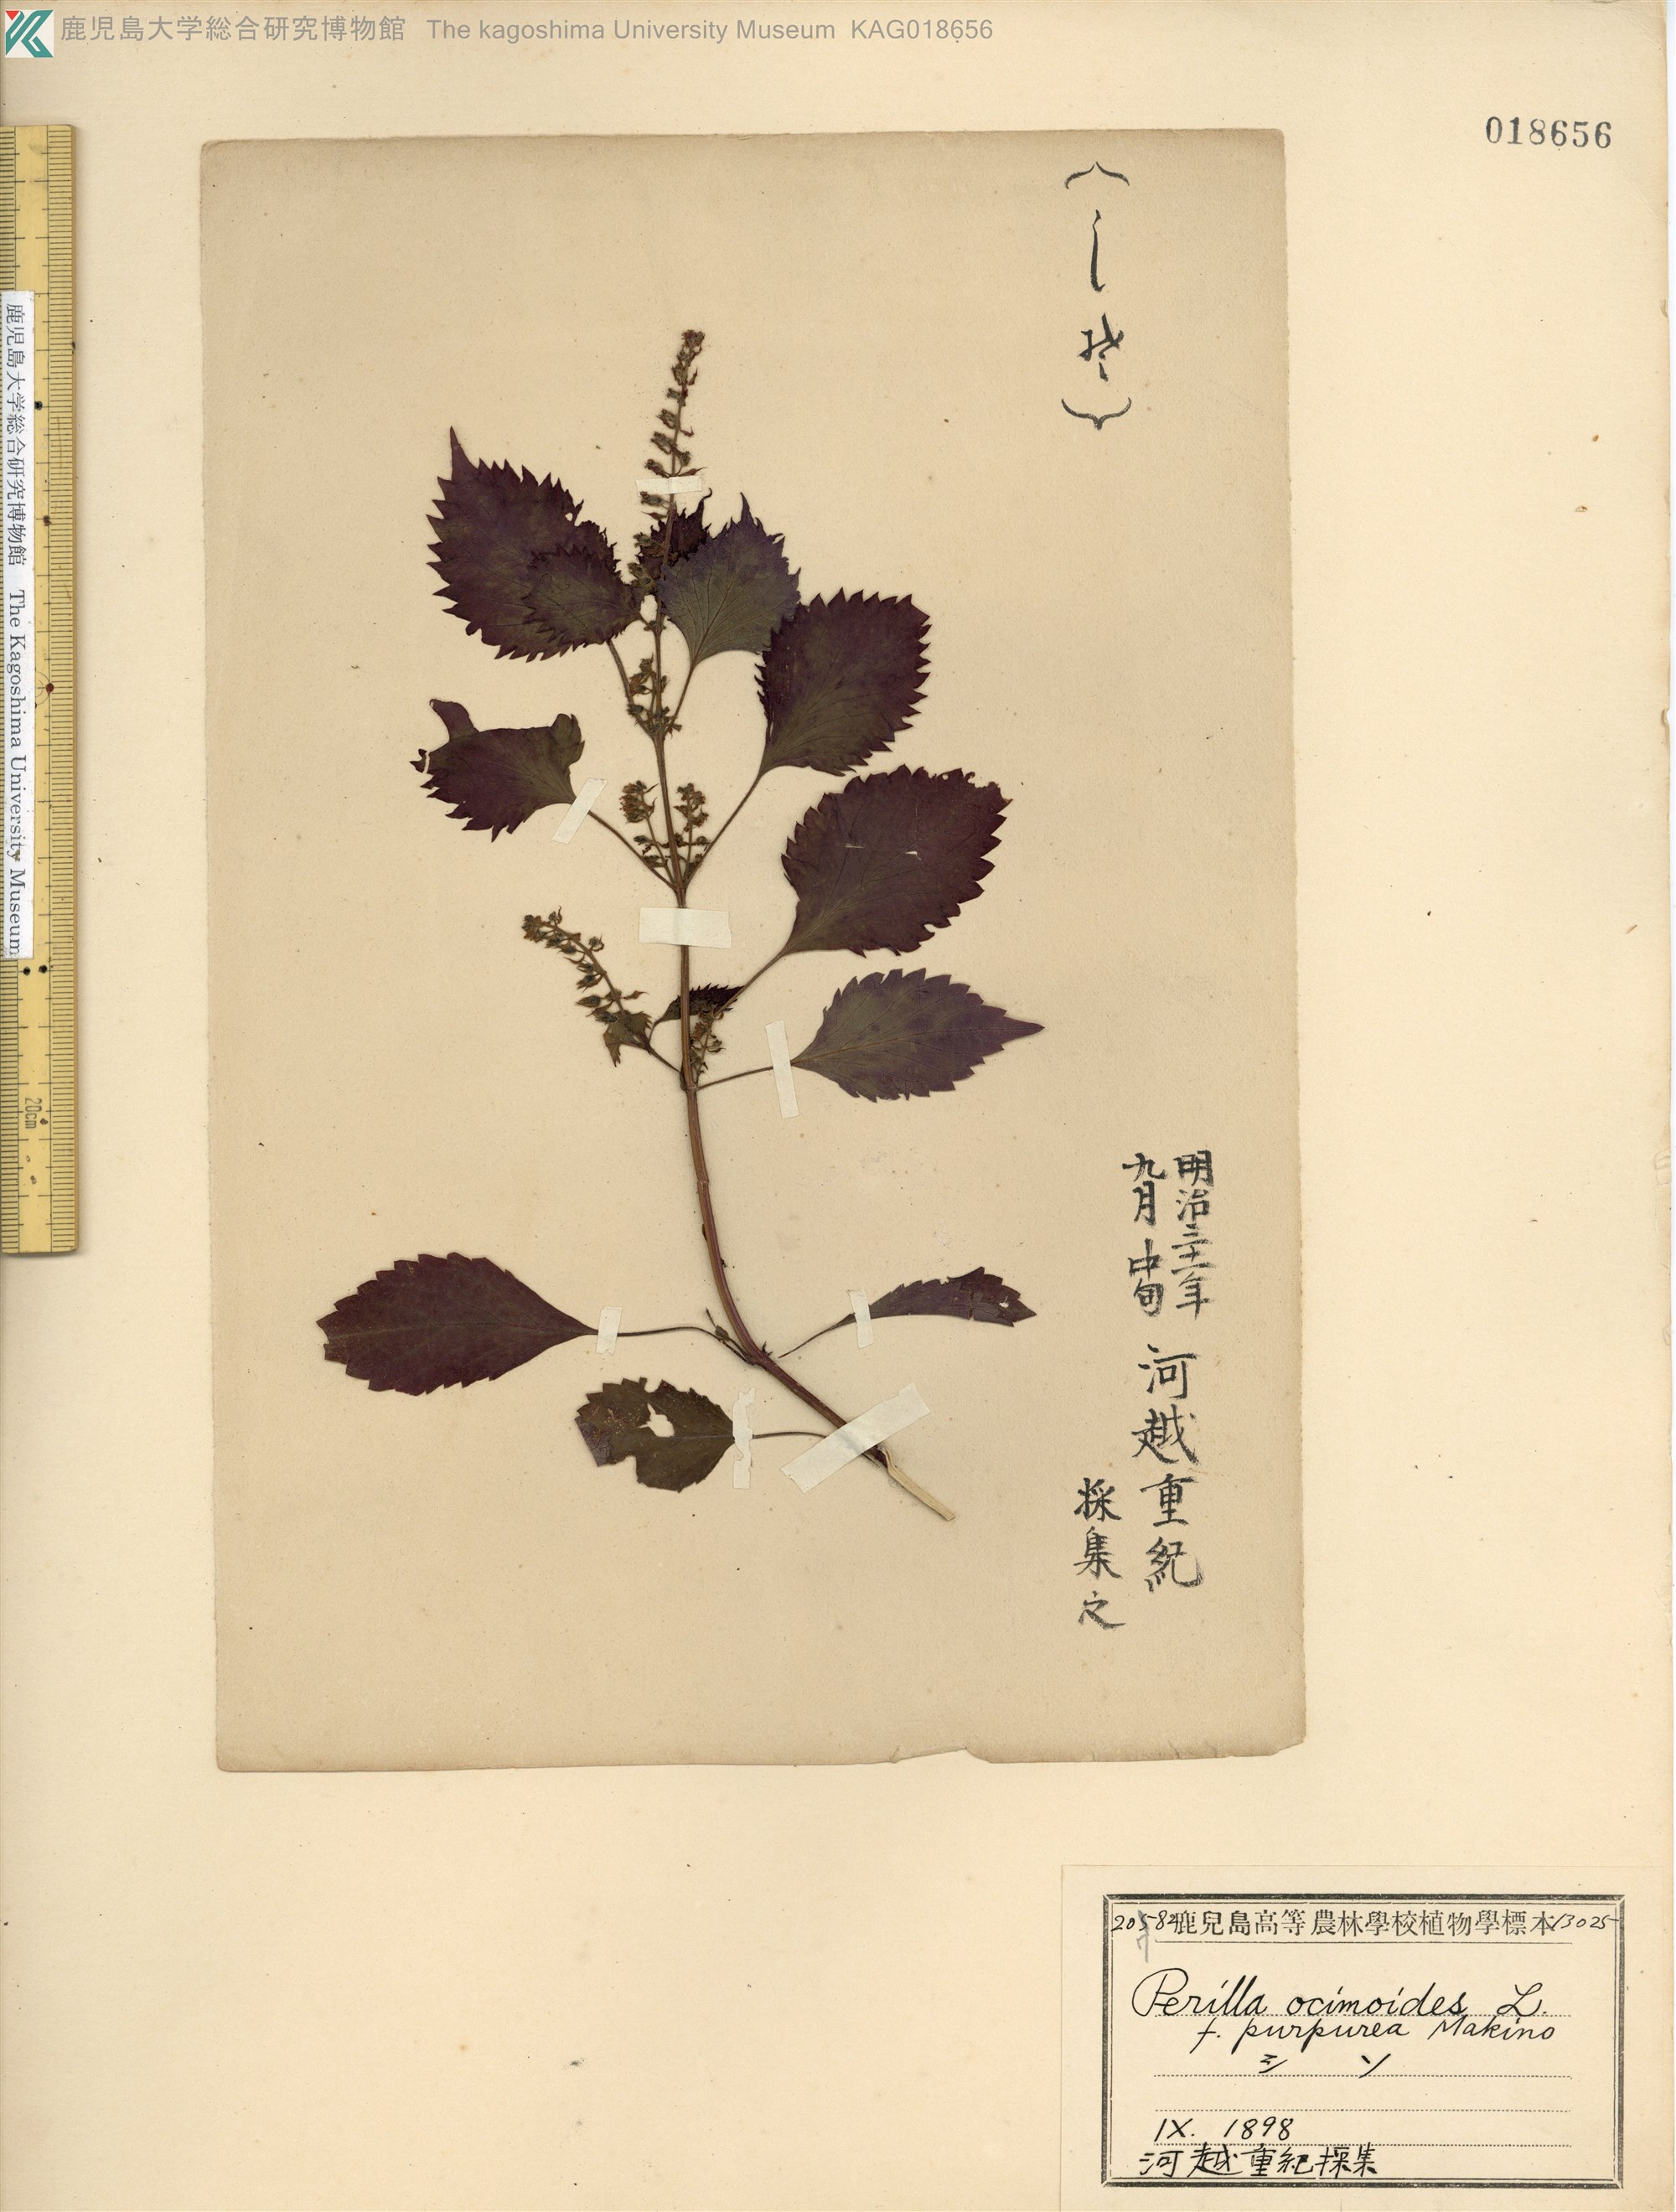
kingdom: Plantae
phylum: Tracheophyta
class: Magnoliopsida
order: Lamiales
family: Lamiaceae
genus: Perilla
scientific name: Perilla frutescens
